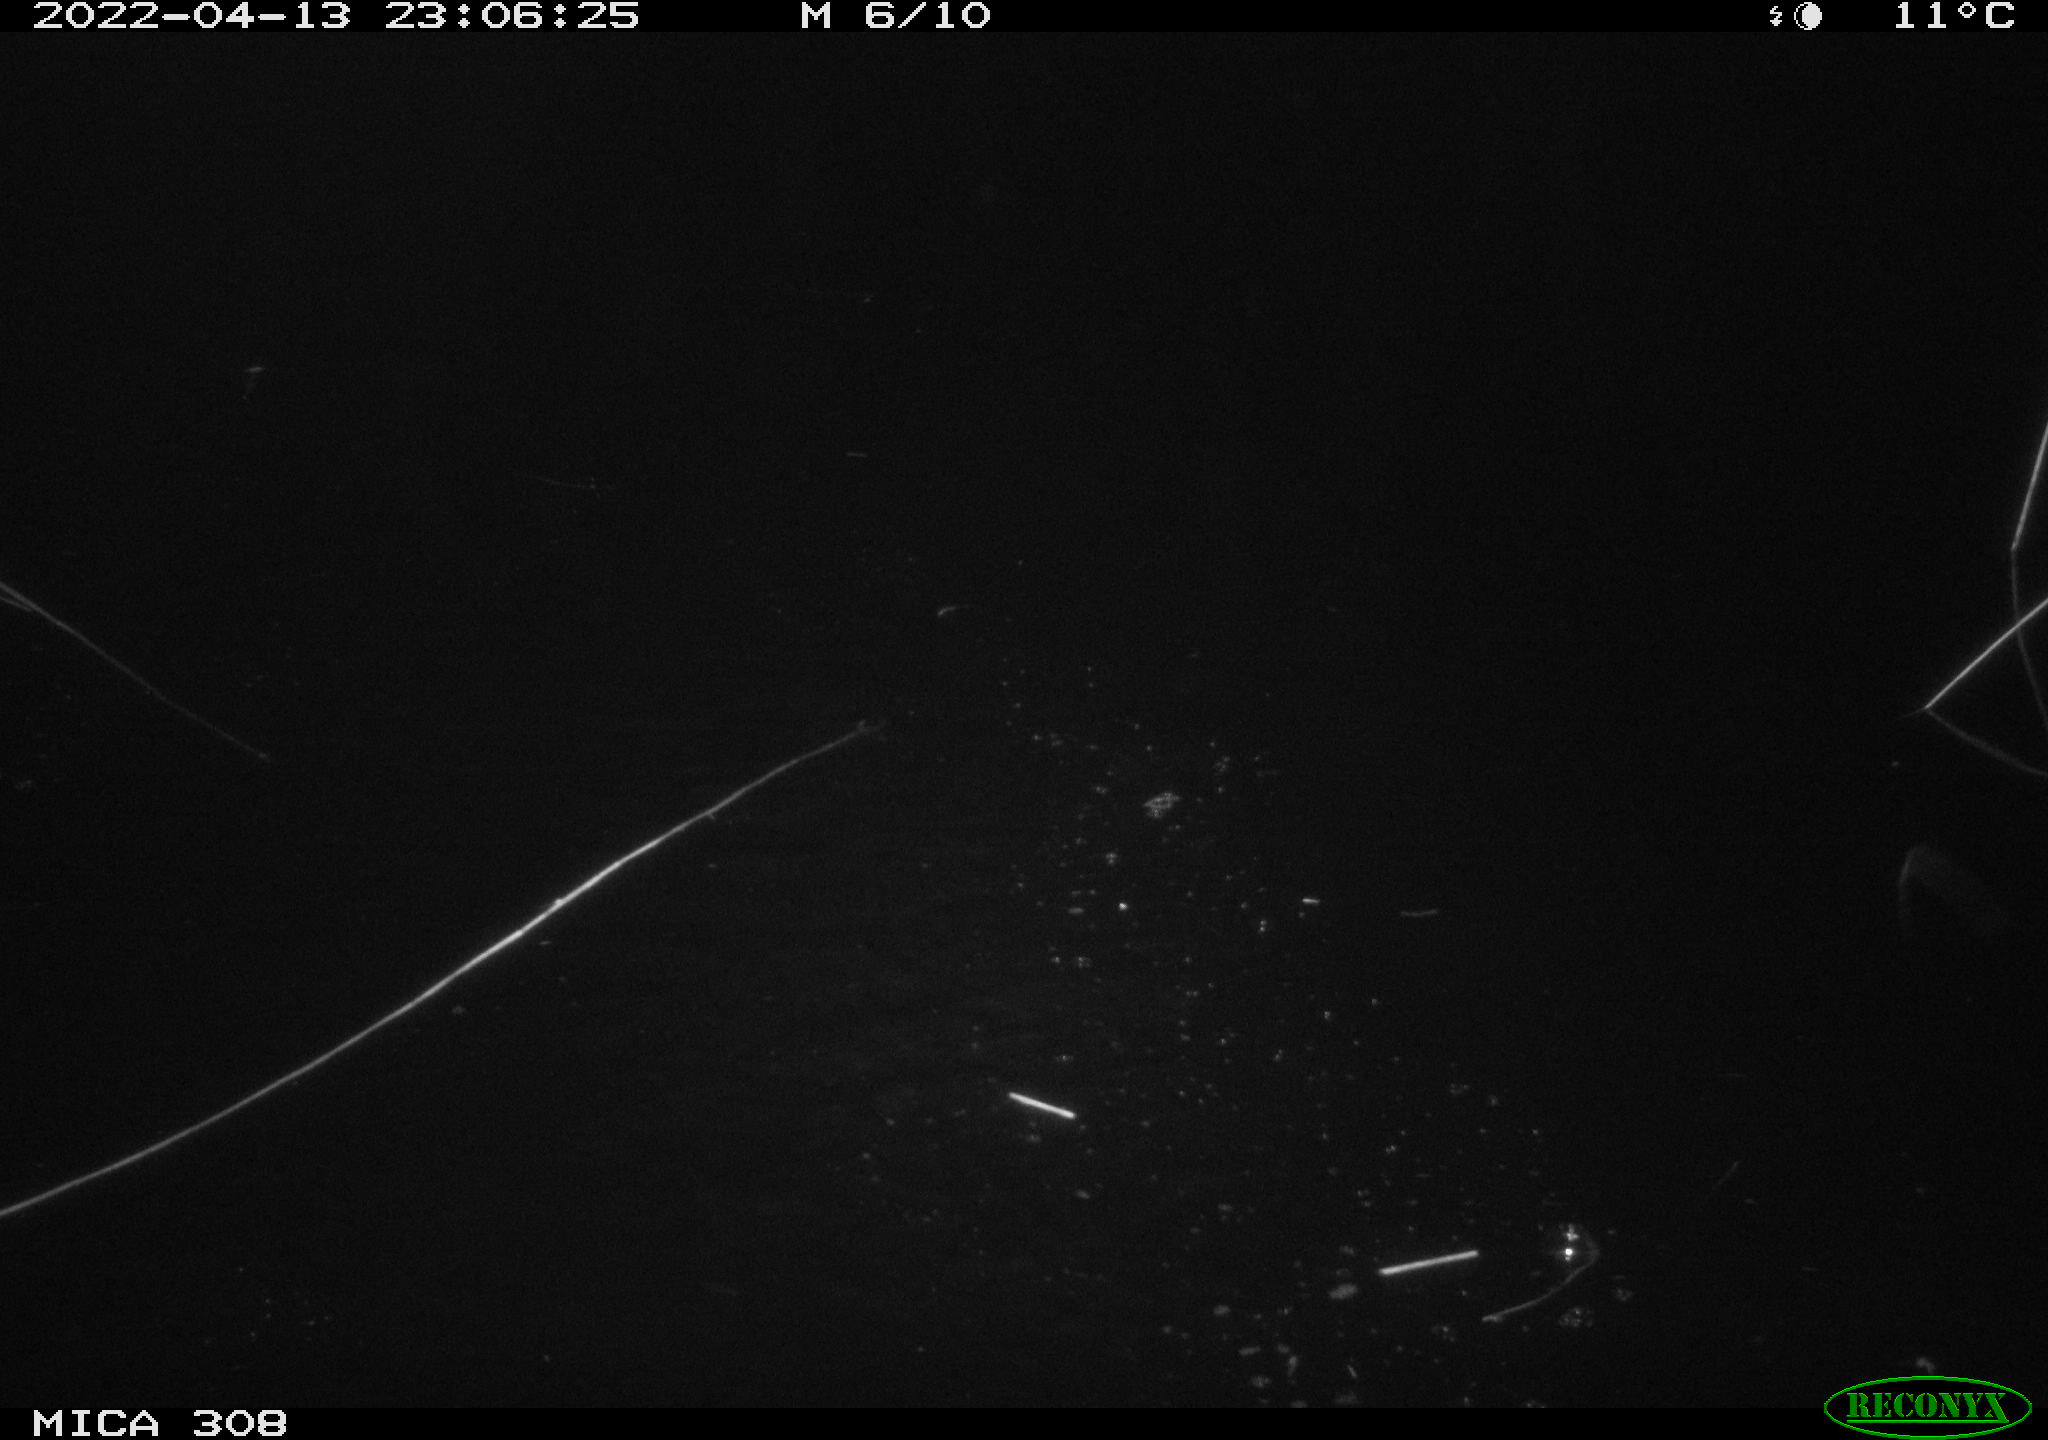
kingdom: Animalia
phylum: Chordata
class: Aves
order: Anseriformes
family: Anatidae
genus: Anas
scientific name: Anas platyrhynchos
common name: Mallard
